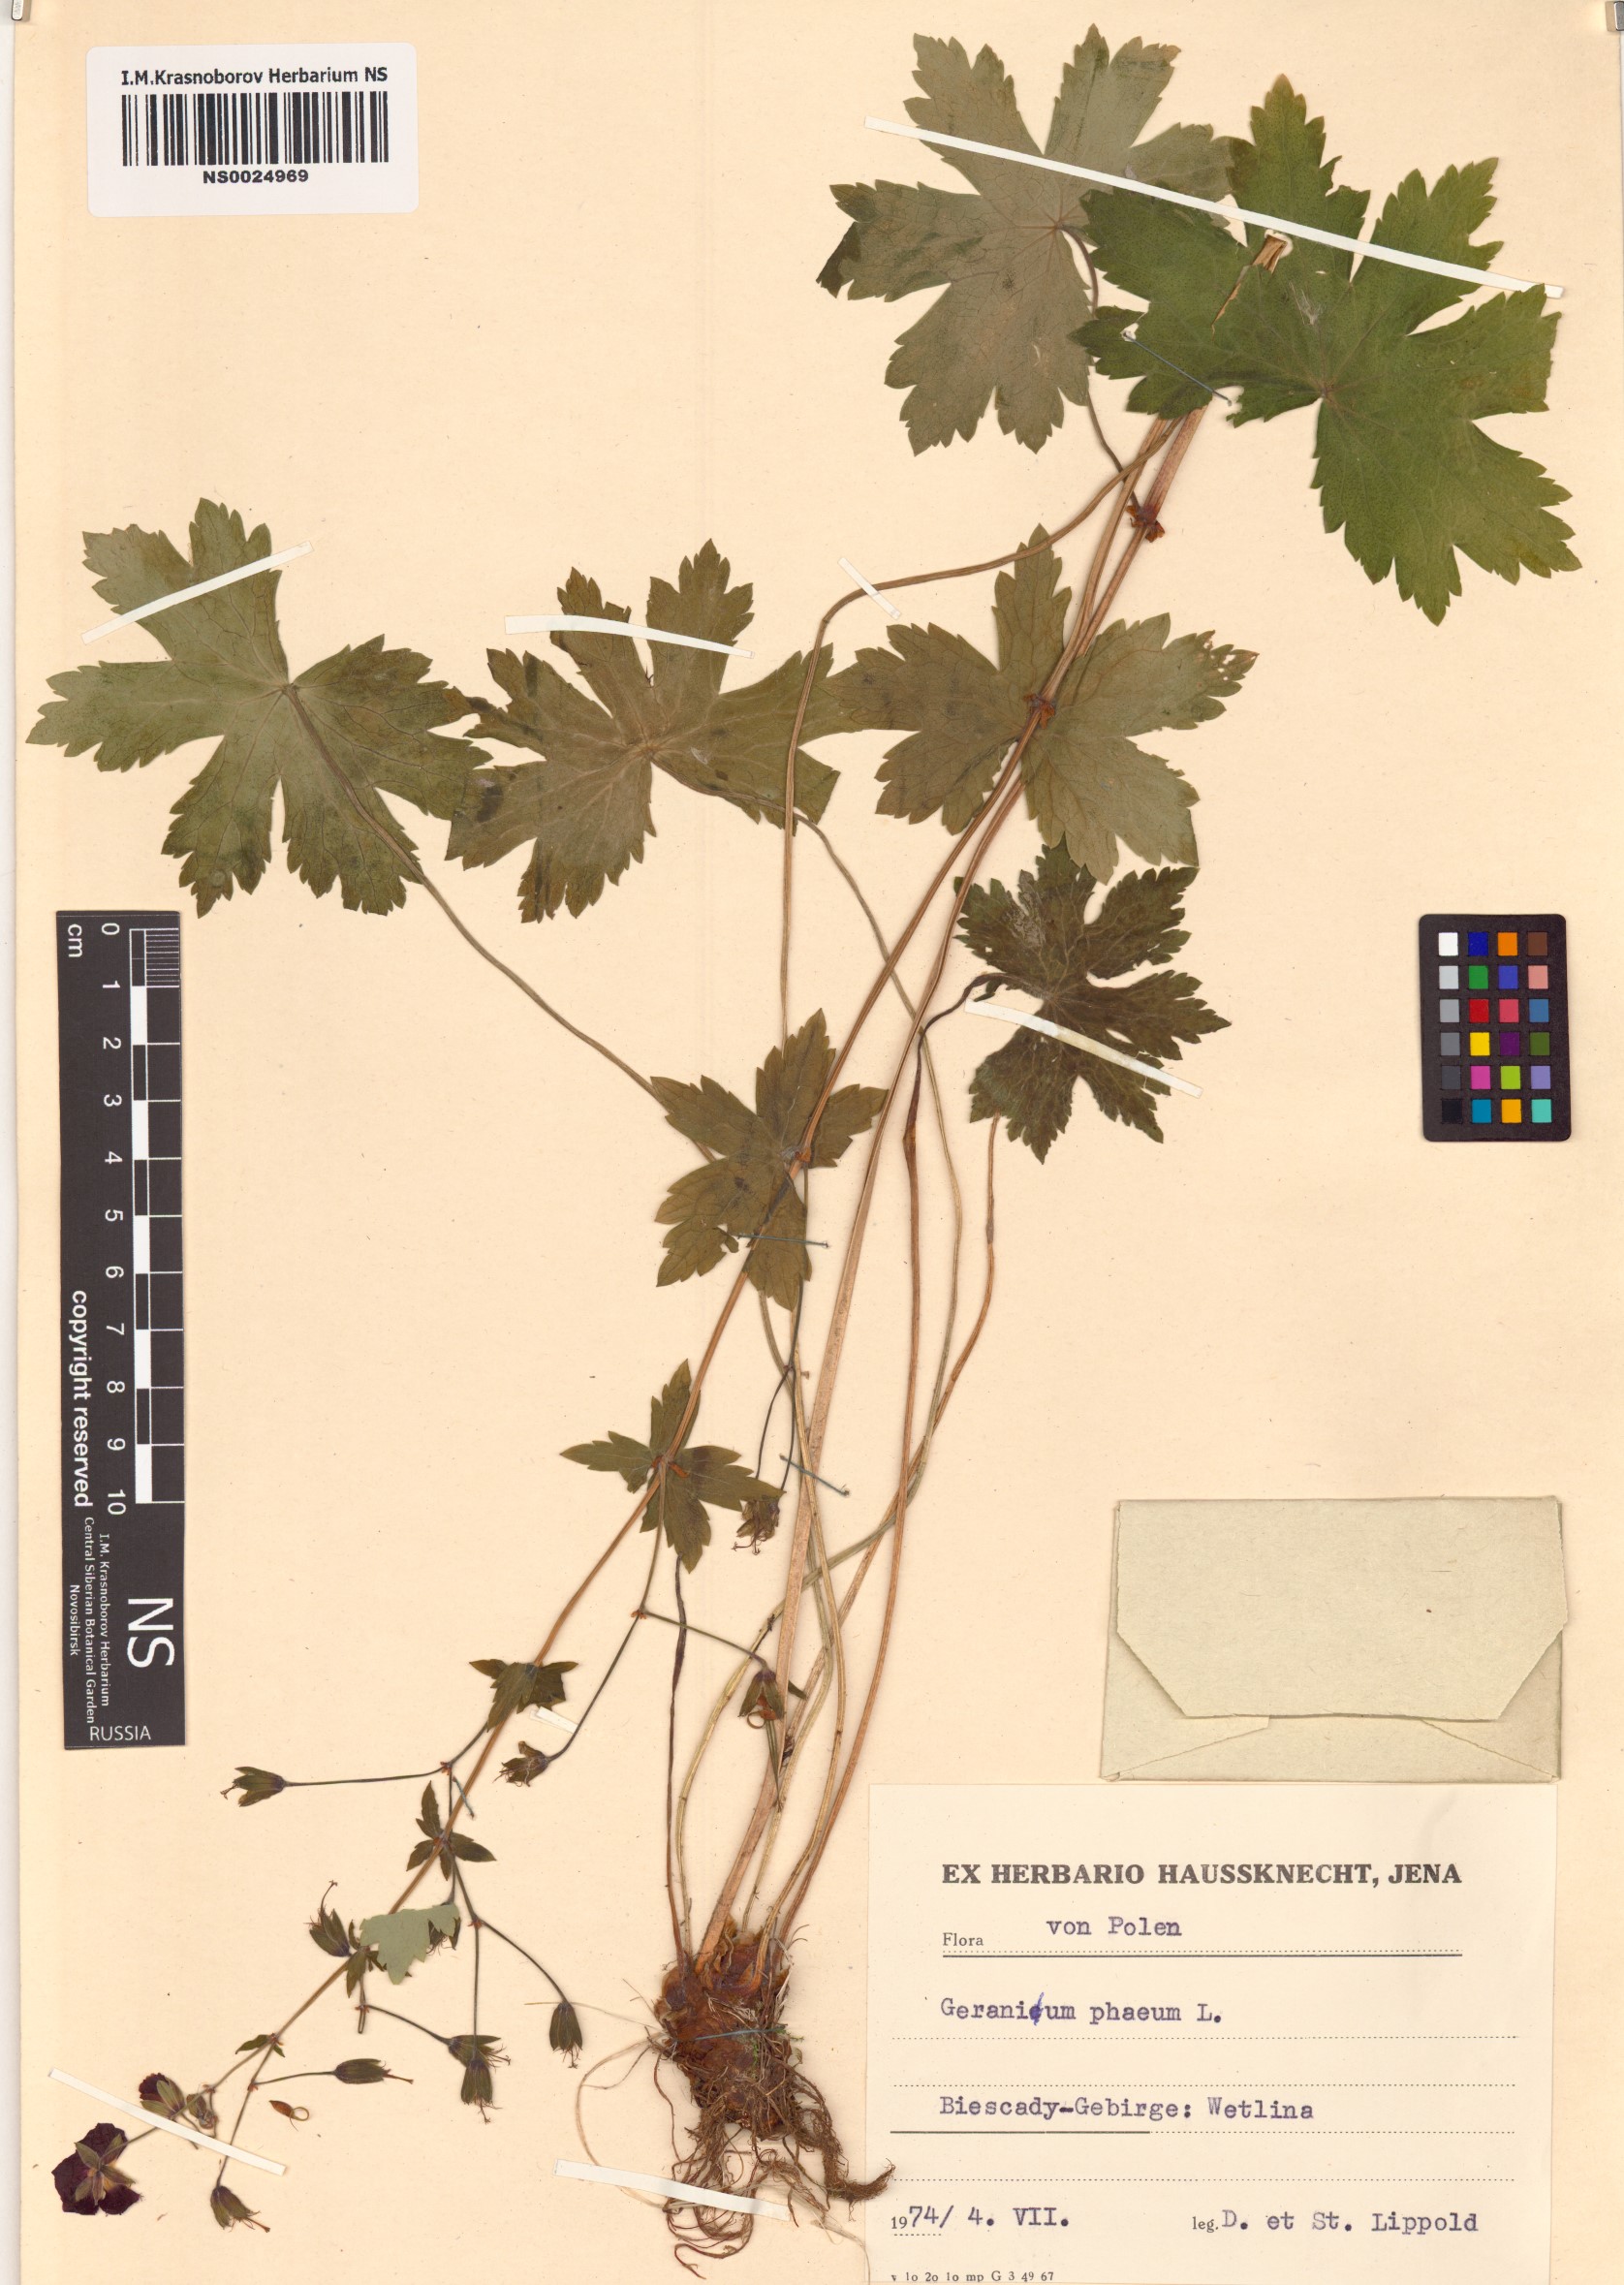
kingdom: Plantae
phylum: Tracheophyta
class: Magnoliopsida
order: Geraniales
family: Geraniaceae
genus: Geranium
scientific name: Geranium phaeum
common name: Dusky crane's-bill
